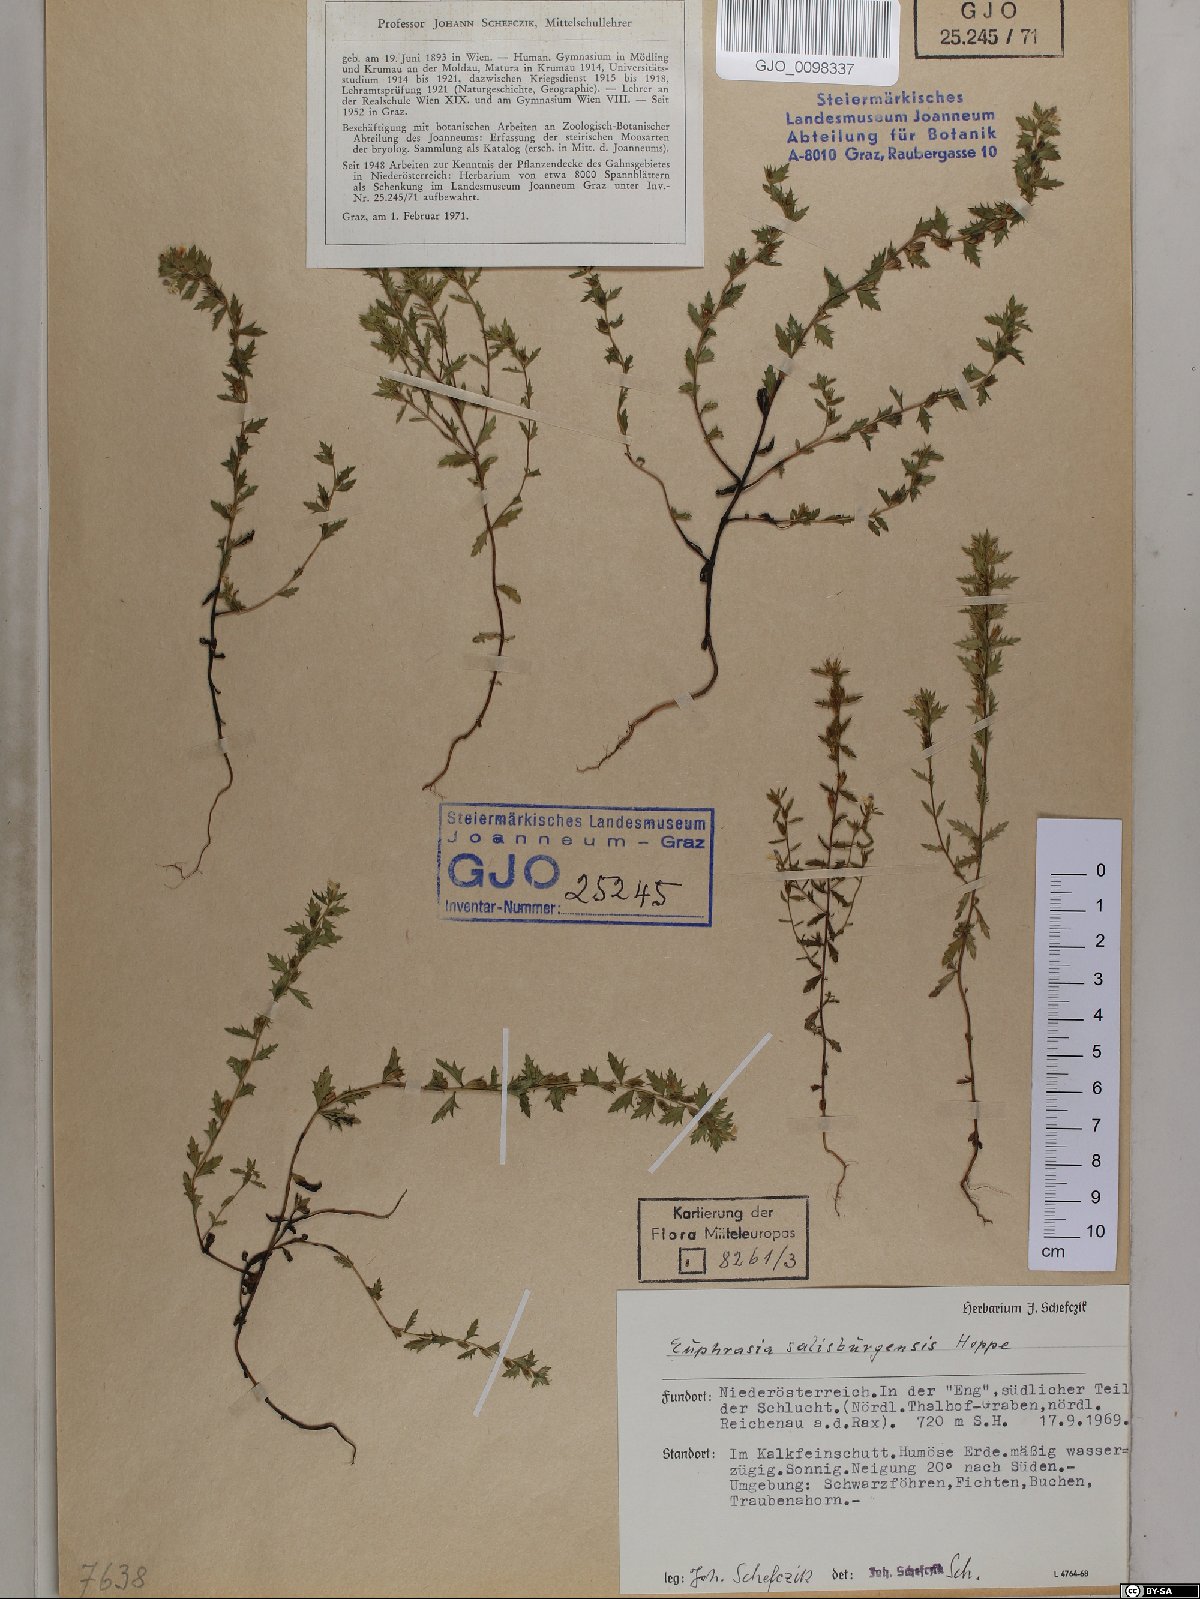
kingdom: Plantae
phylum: Tracheophyta
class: Magnoliopsida
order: Lamiales
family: Orobanchaceae
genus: Euphrasia
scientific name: Euphrasia salisburgensis
